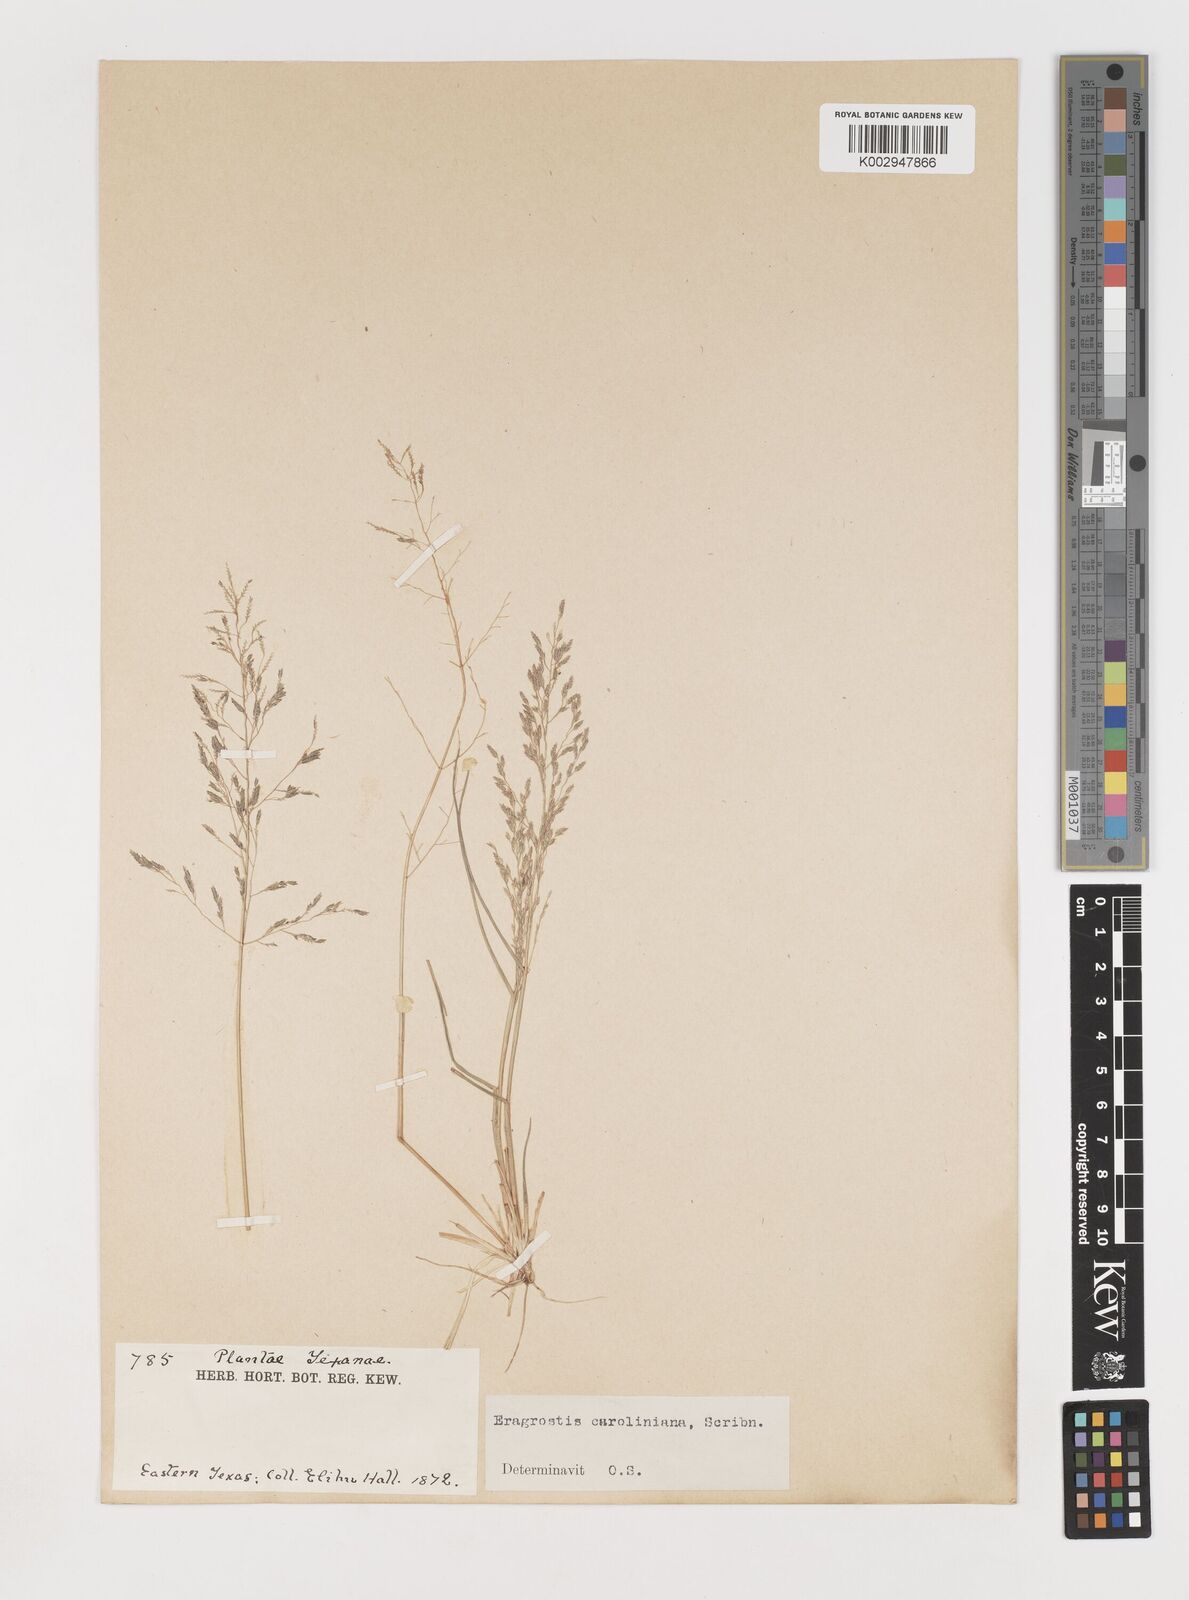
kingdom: Plantae
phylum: Tracheophyta
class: Liliopsida
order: Poales
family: Poaceae
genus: Eragrostis
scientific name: Eragrostis pectinacea
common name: Tufted lovegrass
